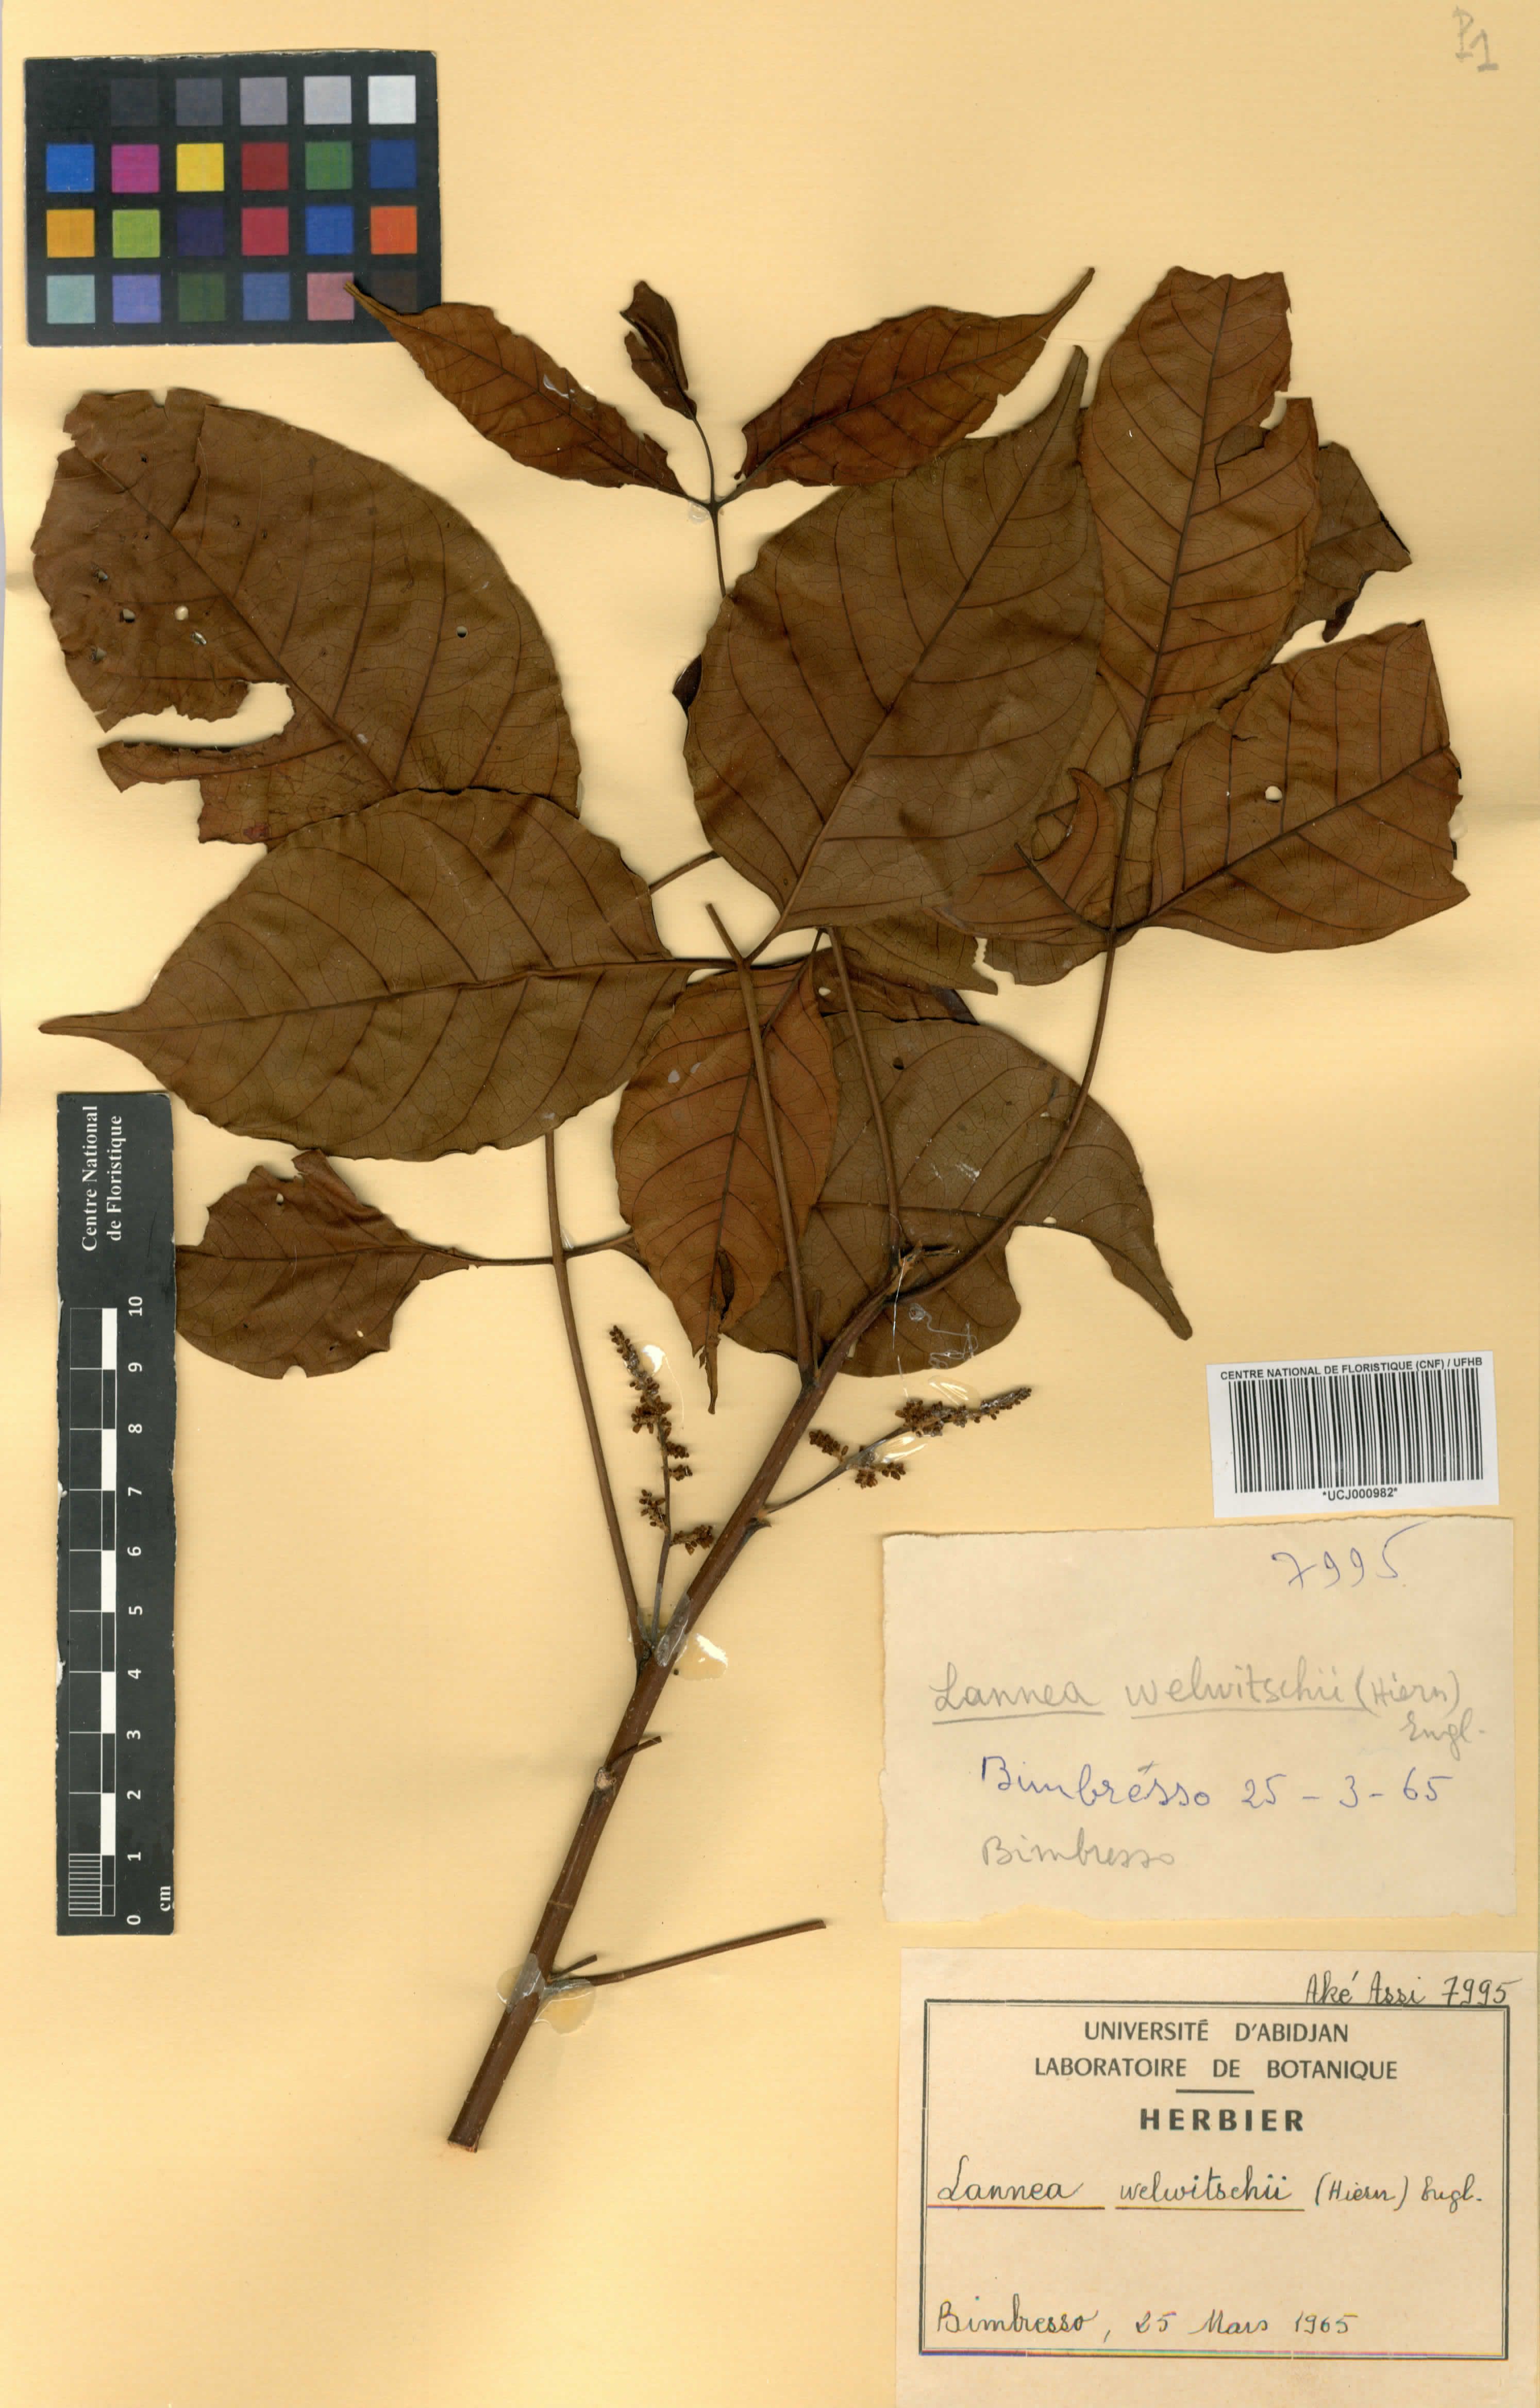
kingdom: Plantae
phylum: Tracheophyta
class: Magnoliopsida
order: Sapindales
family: Anacardiaceae
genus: Lannea
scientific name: Lannea welwitschii
